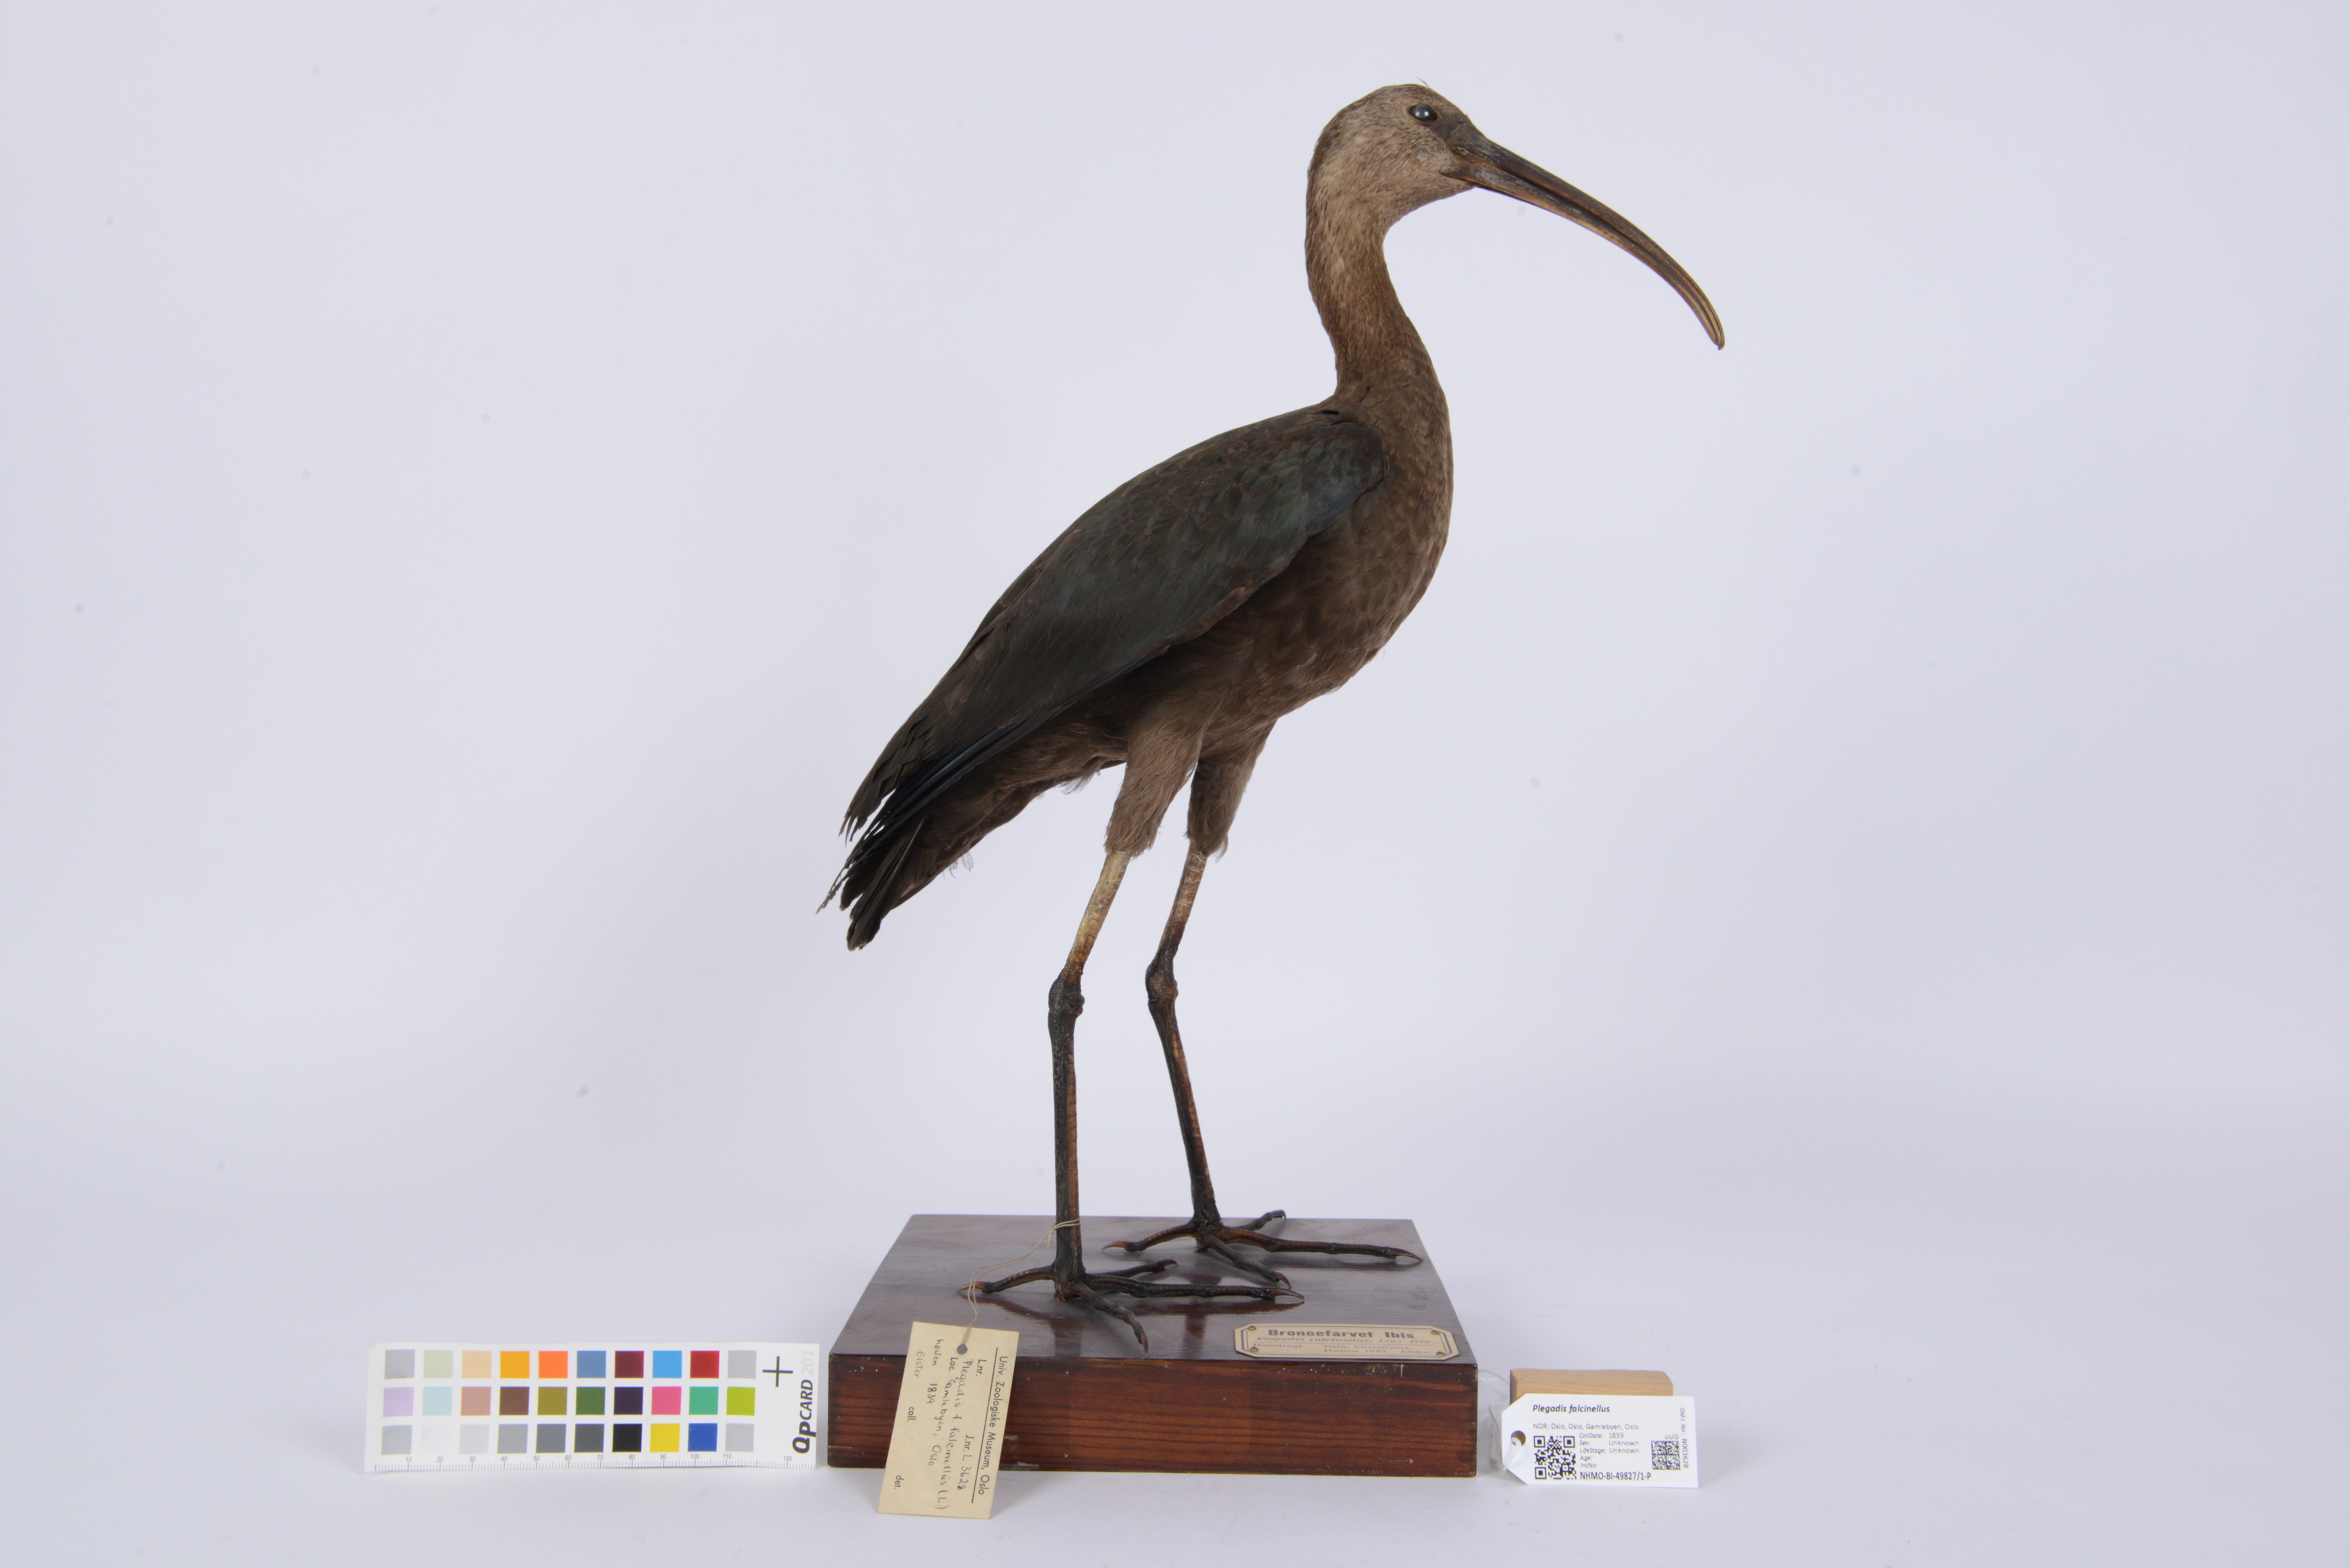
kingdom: Animalia
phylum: Chordata
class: Aves
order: Pelecaniformes
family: Threskiornithidae
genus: Plegadis
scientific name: Plegadis falcinellus
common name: Glossy ibis
